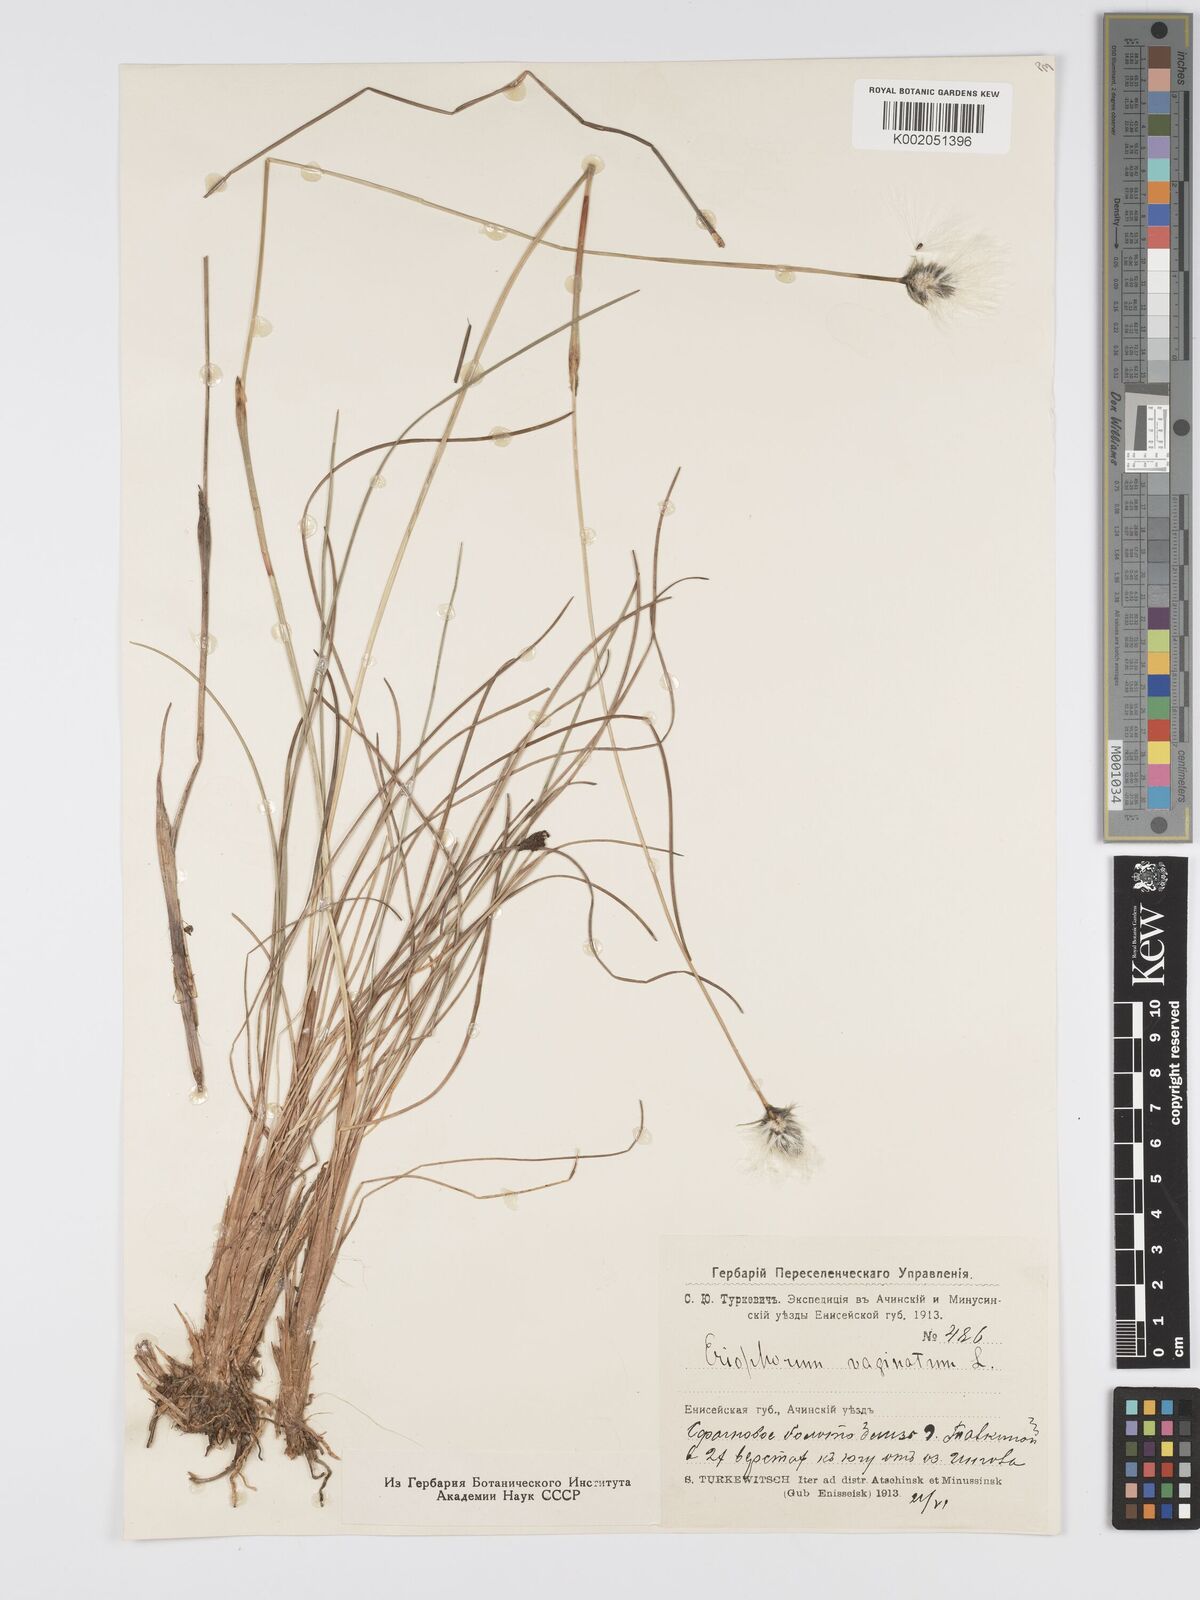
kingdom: Plantae
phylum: Tracheophyta
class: Liliopsida
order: Poales
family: Cyperaceae
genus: Eriophorum
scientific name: Eriophorum vaginatum
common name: Hare's-tail cottongrass
